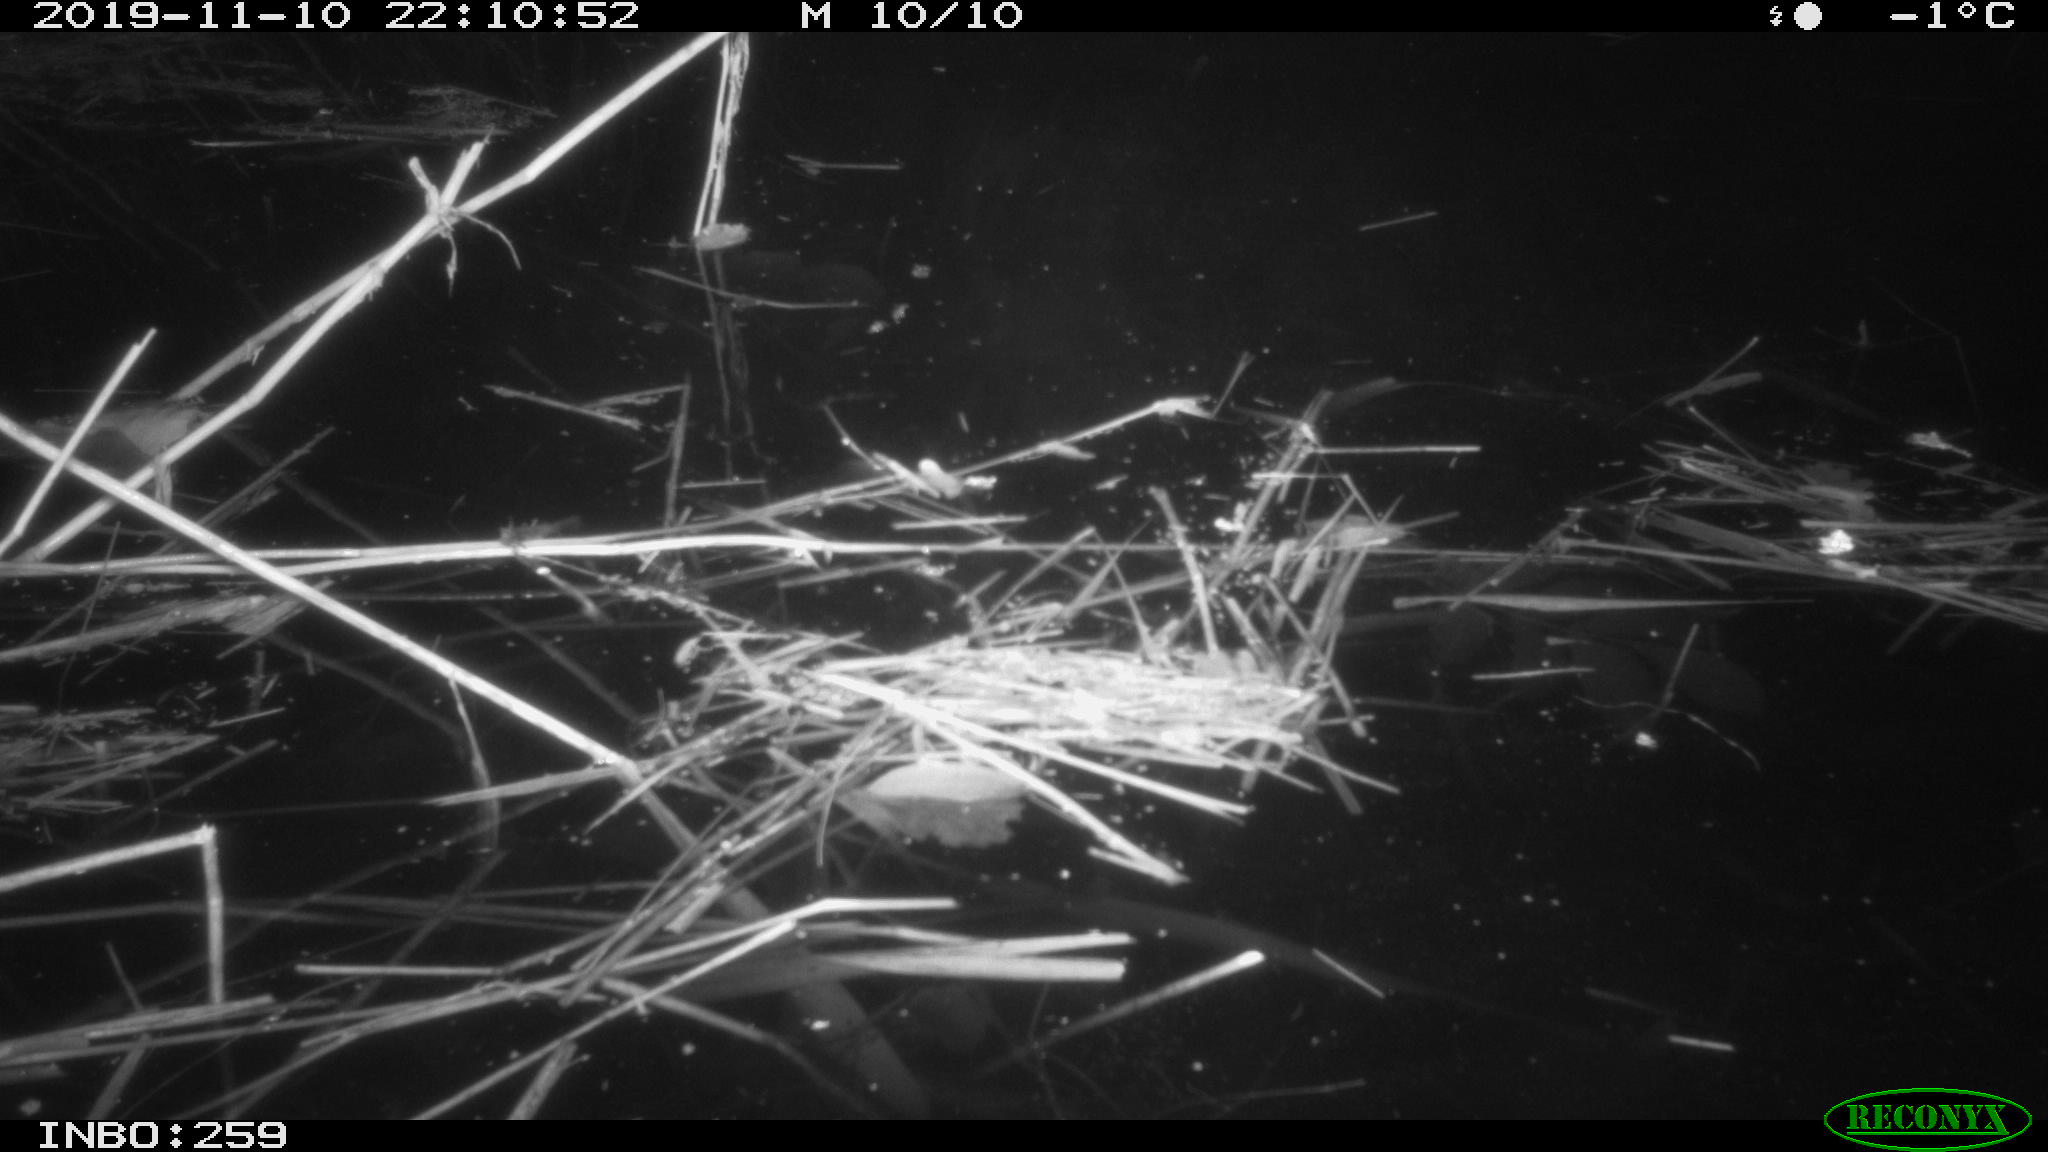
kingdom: Animalia
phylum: Chordata
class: Mammalia
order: Rodentia
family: Cricetidae
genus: Ondatra
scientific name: Ondatra zibethicus
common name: Muskrat
